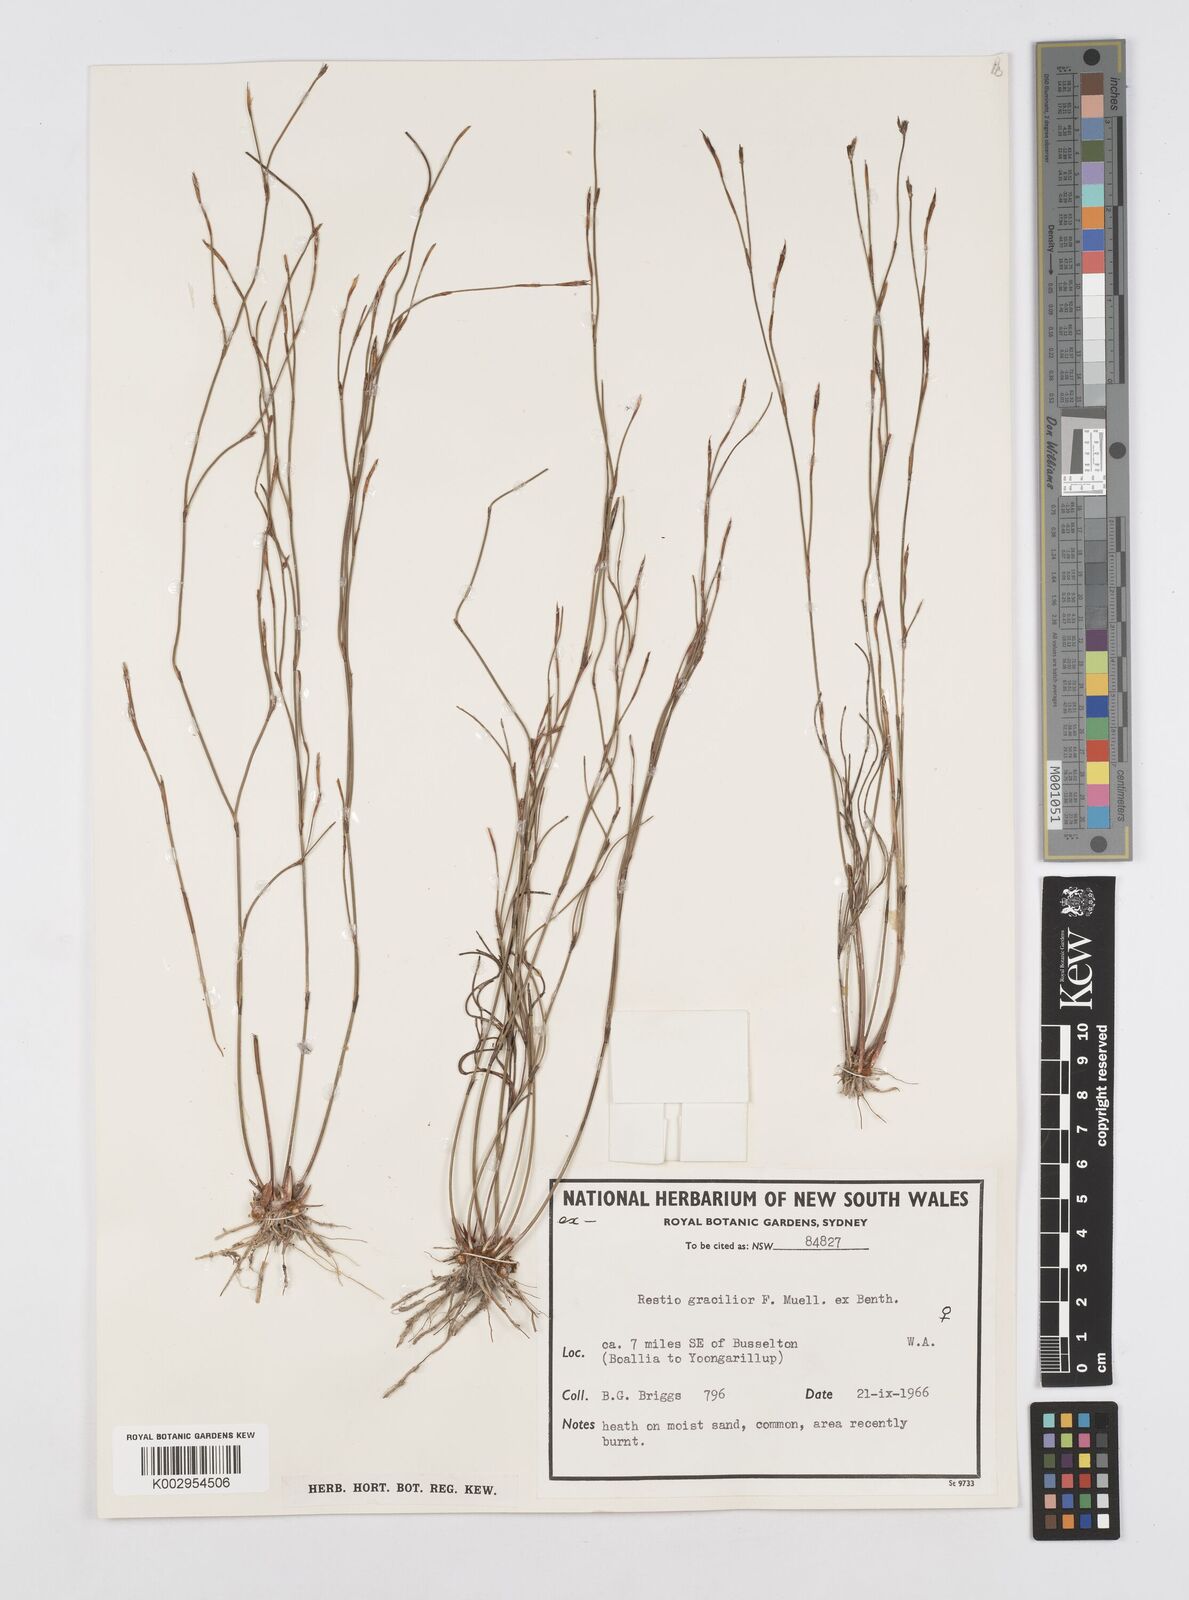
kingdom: Plantae
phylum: Tracheophyta
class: Liliopsida
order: Poales
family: Restionaceae
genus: Chordifex
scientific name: Chordifex gracilior
